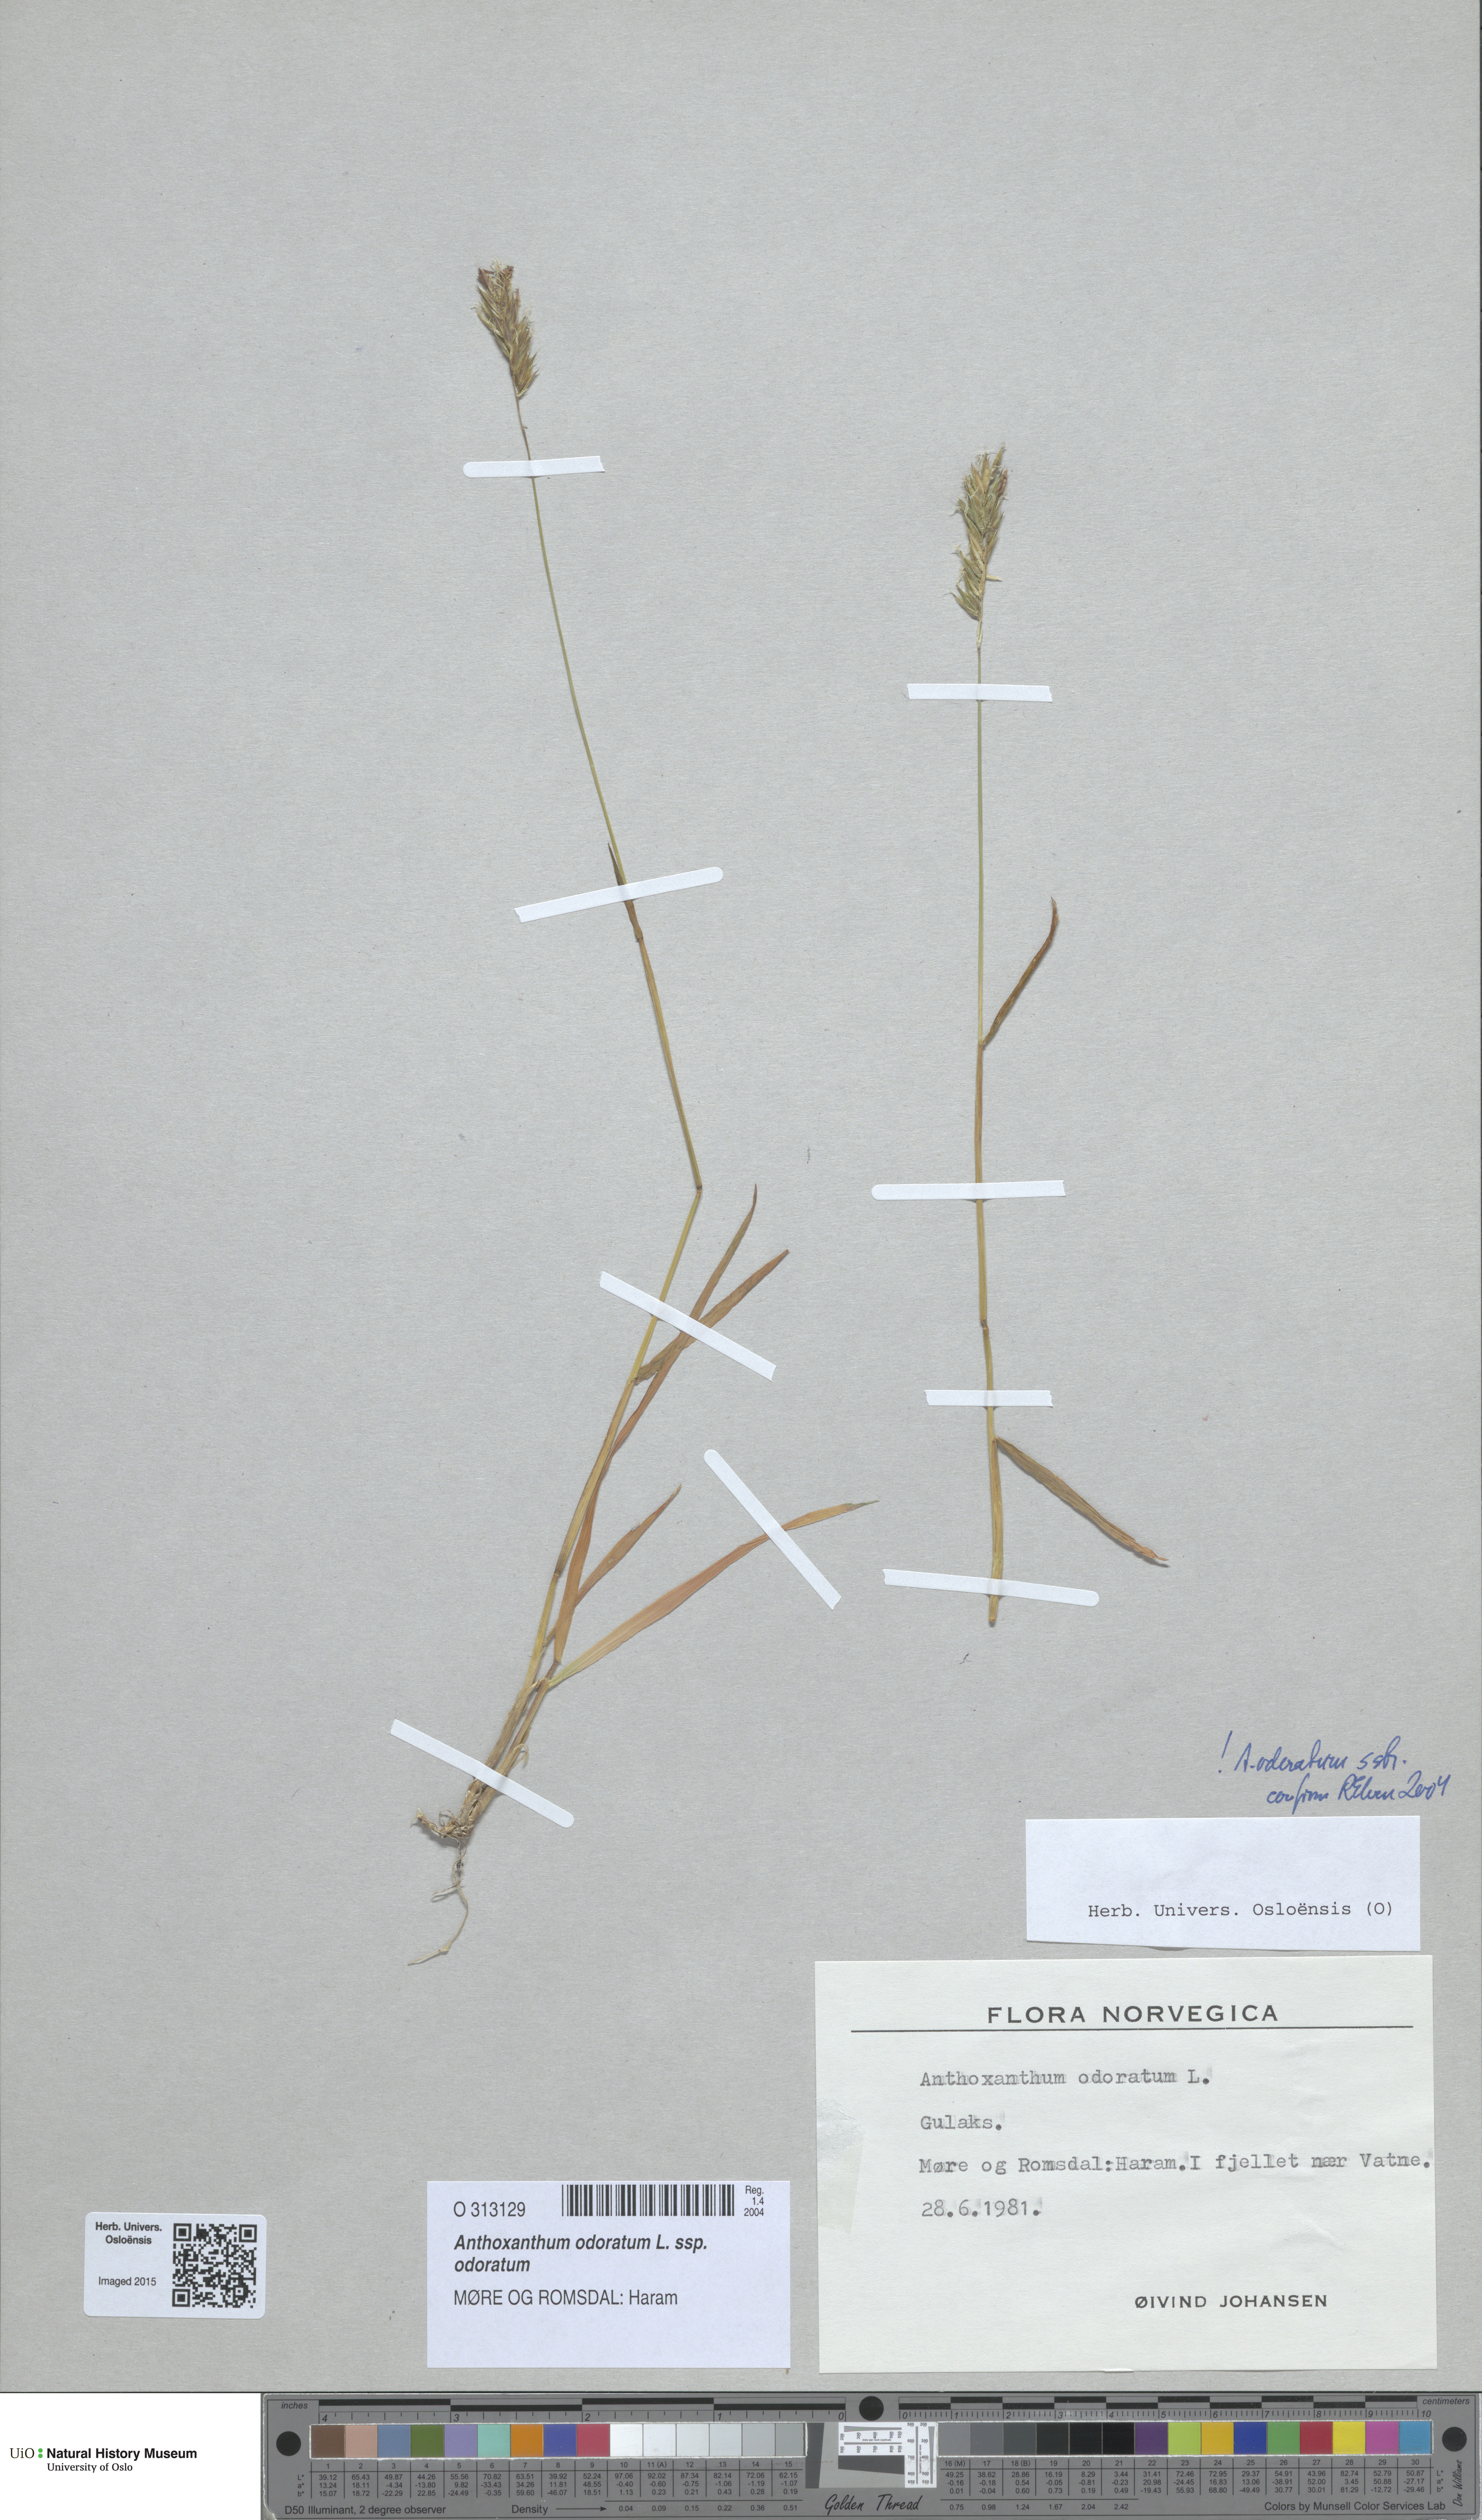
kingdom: Plantae
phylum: Tracheophyta
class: Liliopsida
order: Poales
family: Poaceae
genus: Anthoxanthum
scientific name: Anthoxanthum odoratum
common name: Sweet vernalgrass
